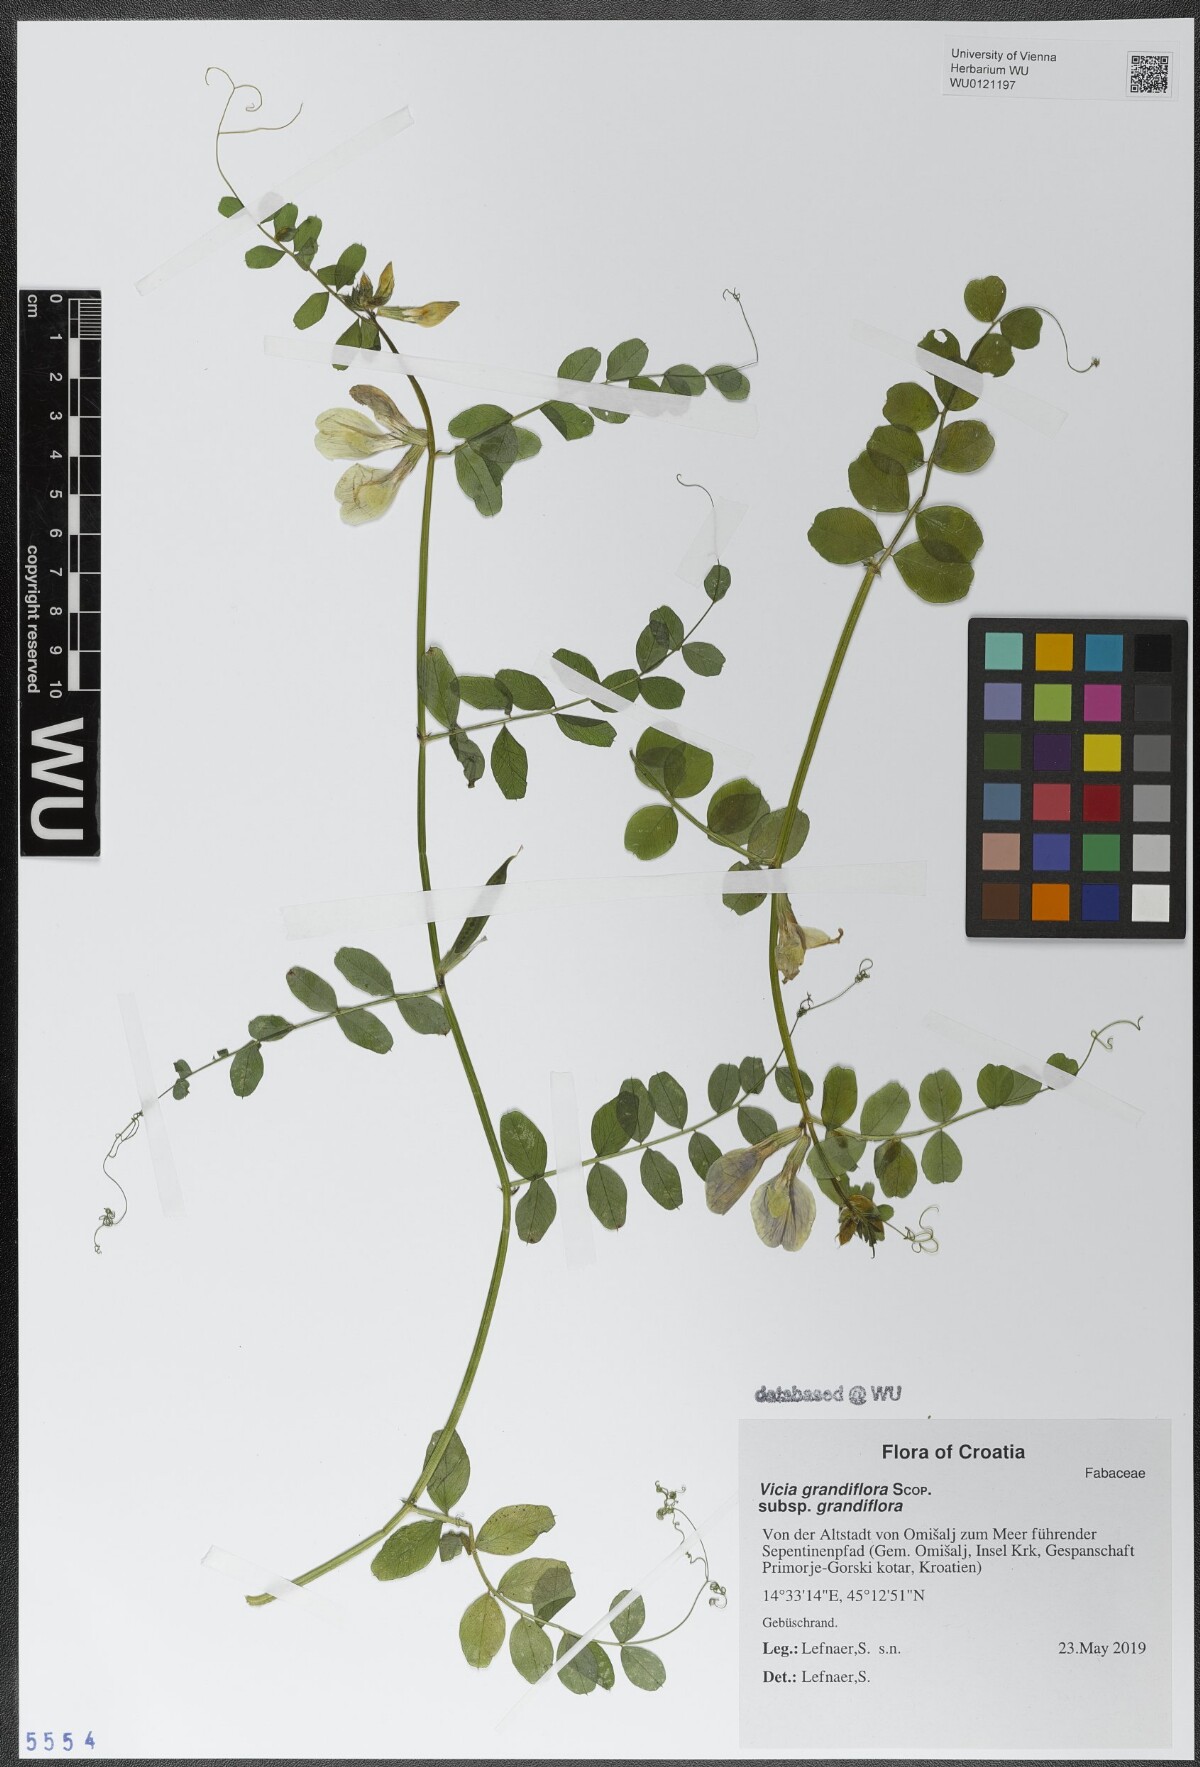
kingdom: Plantae
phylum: Tracheophyta
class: Magnoliopsida
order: Fabales
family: Fabaceae
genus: Vicia
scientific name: Vicia grandiflora
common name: Large yellow vetch
